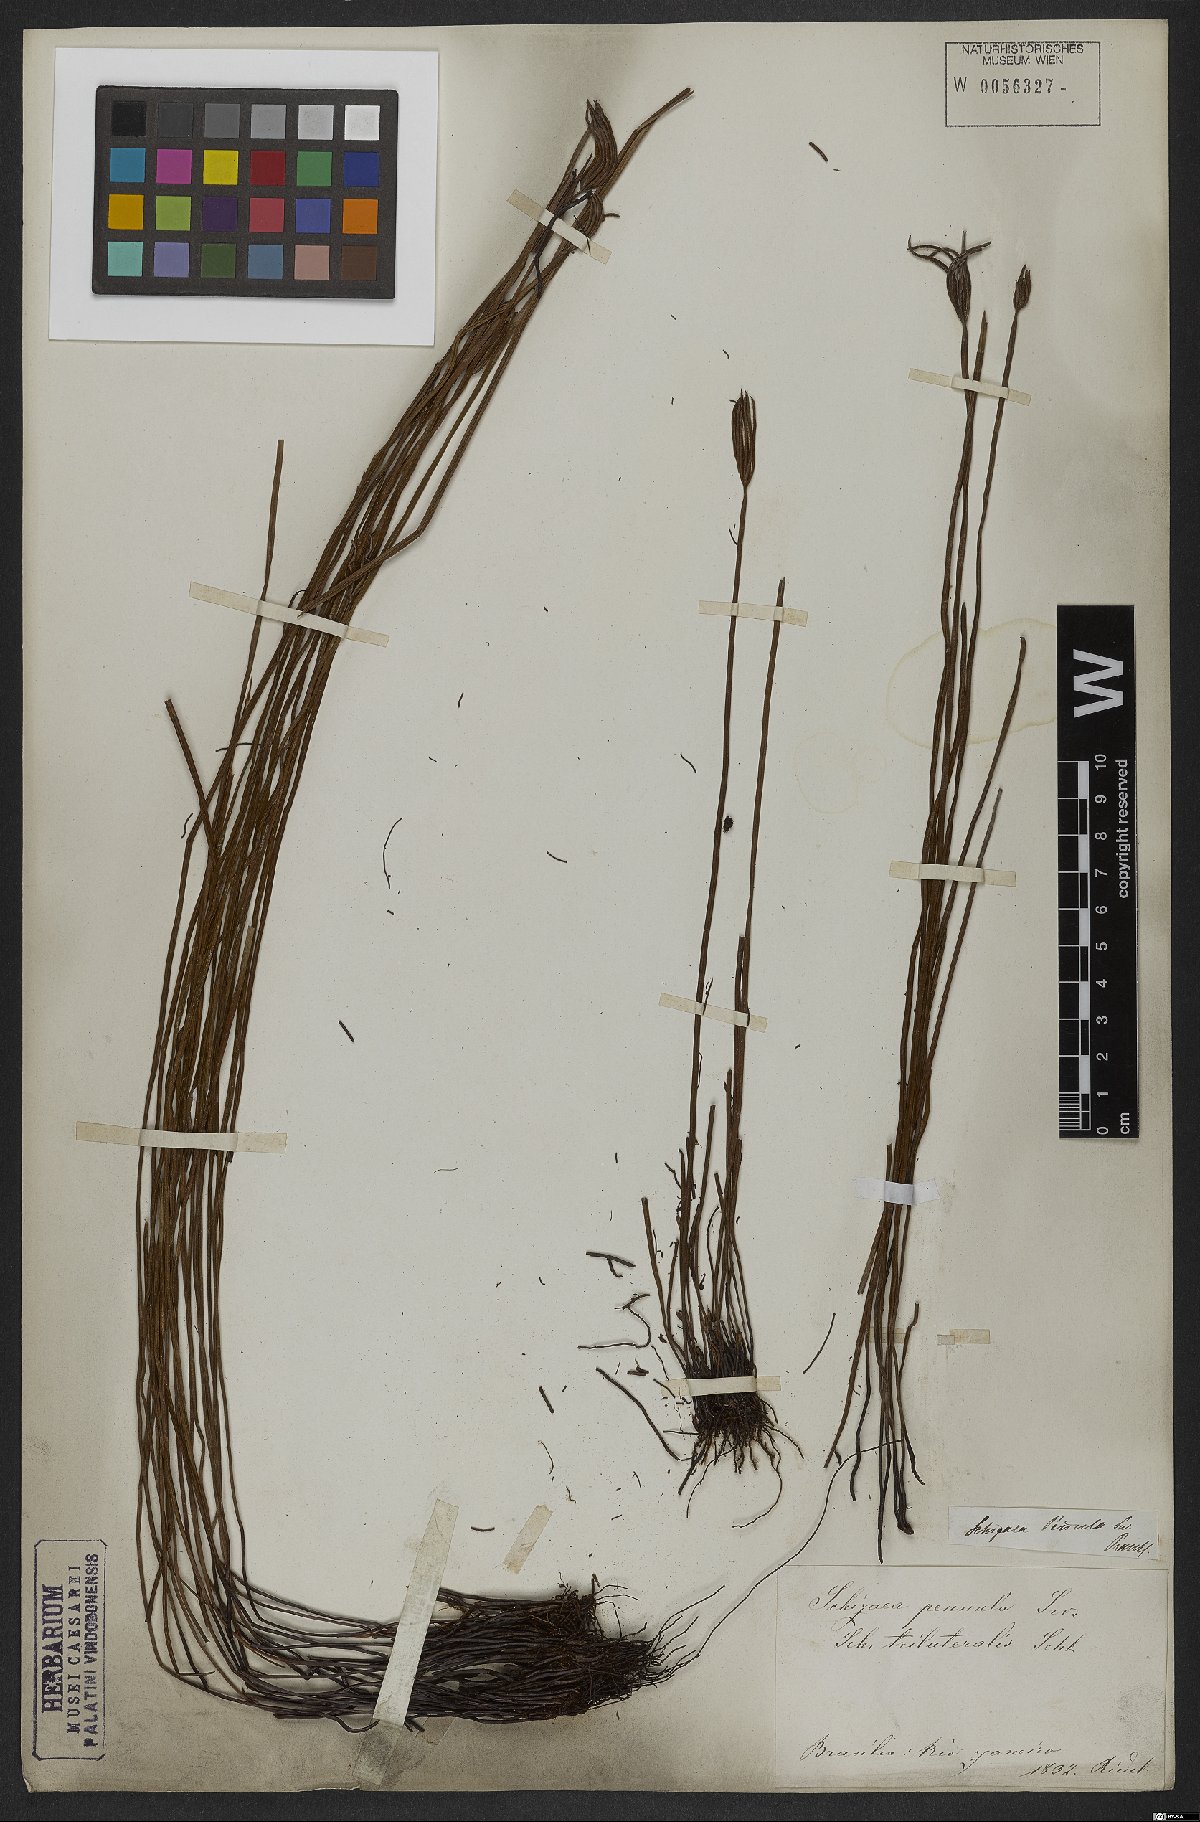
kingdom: Plantae
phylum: Tracheophyta
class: Polypodiopsida
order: Schizaeales
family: Schizaeaceae
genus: Actinostachys
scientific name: Actinostachys pennula
